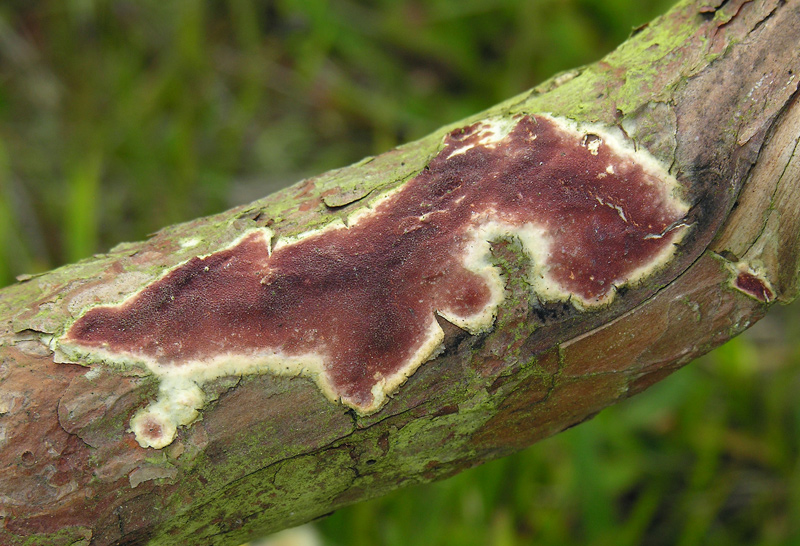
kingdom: Fungi
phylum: Basidiomycota
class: Agaricomycetes
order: Polyporales
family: Irpicaceae
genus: Meruliopsis
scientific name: Meruliopsis taxicola
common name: purpurbrun foldporesvamp
